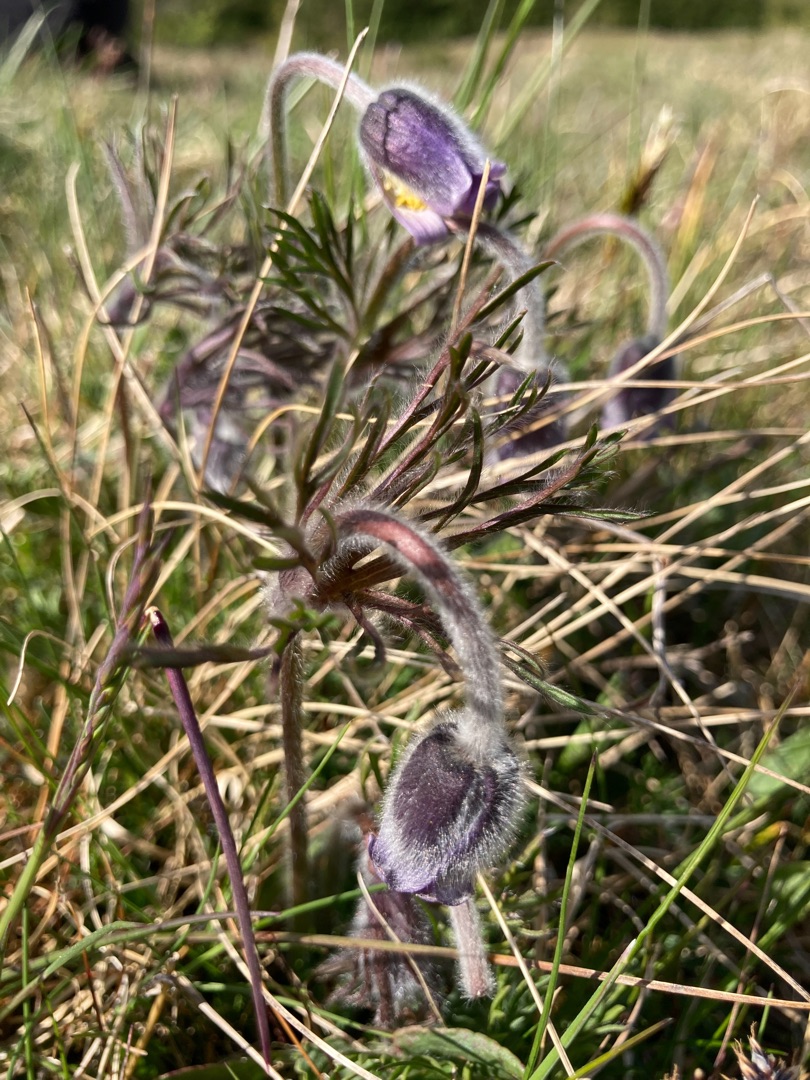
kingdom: Plantae
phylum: Tracheophyta
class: Magnoliopsida
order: Ranunculales
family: Ranunculaceae
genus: Pulsatilla
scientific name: Pulsatilla pratensis
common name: Nikkende kobjælde
